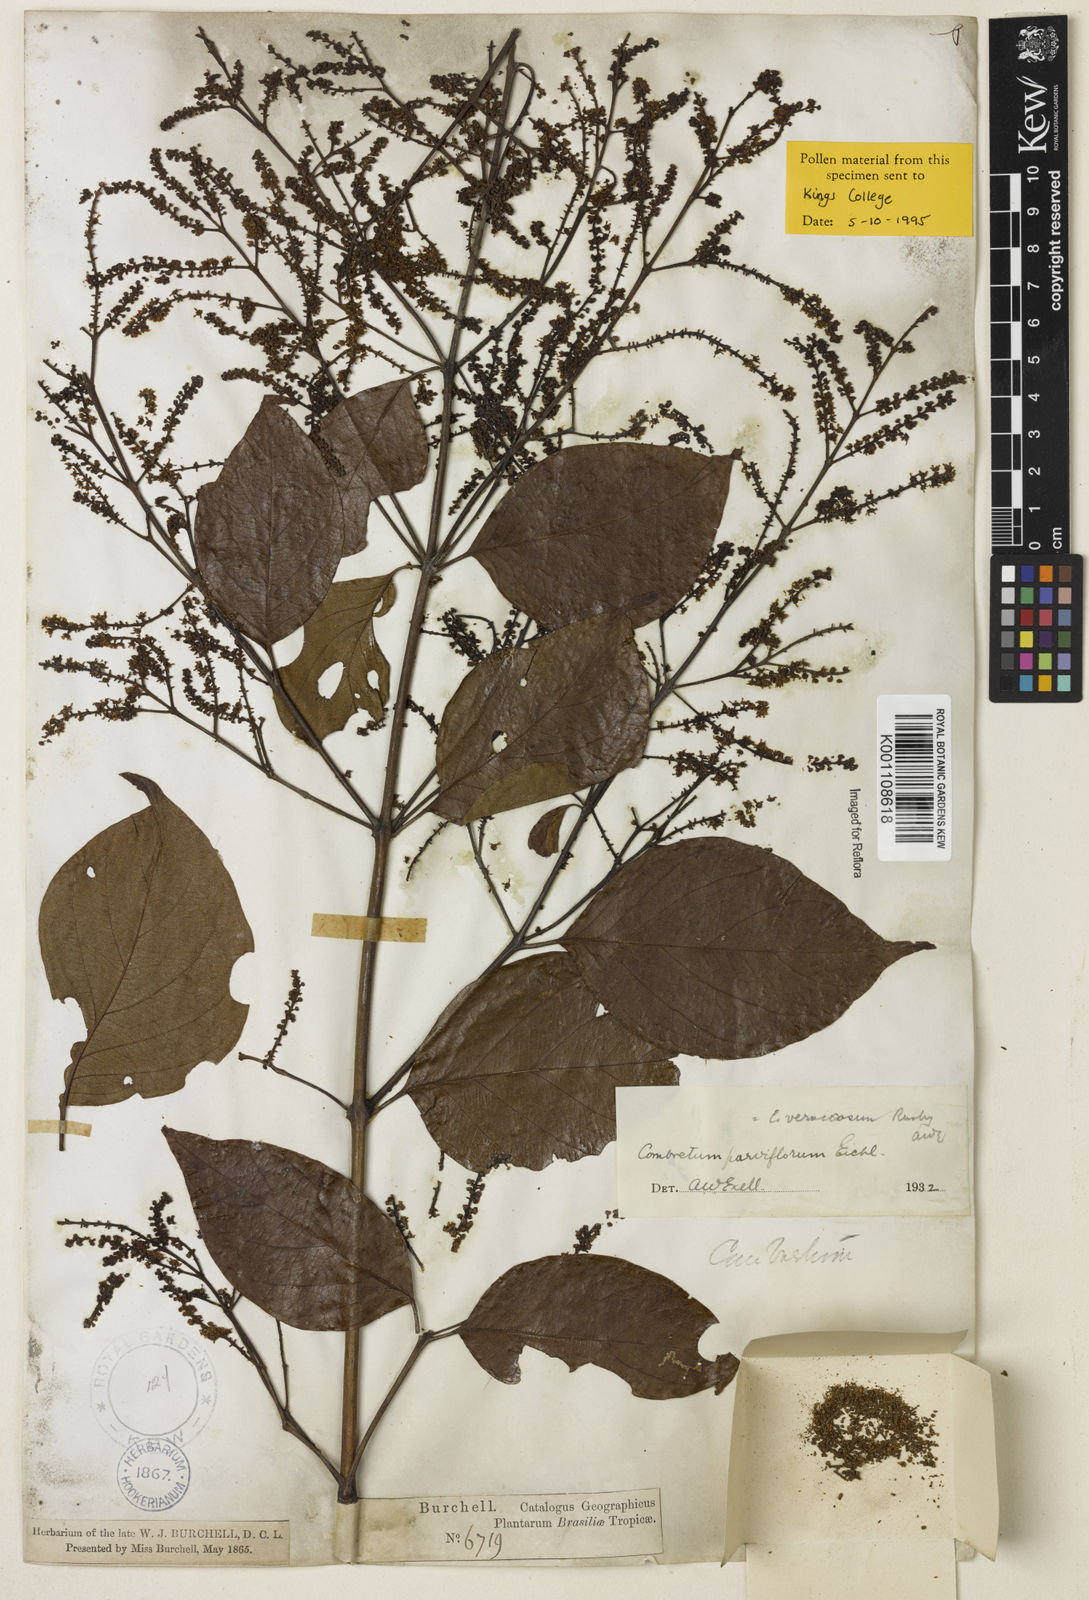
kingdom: Plantae
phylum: Tracheophyta
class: Magnoliopsida
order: Myrtales
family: Combretaceae
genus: Combretum
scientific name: Combretum vernicosum
